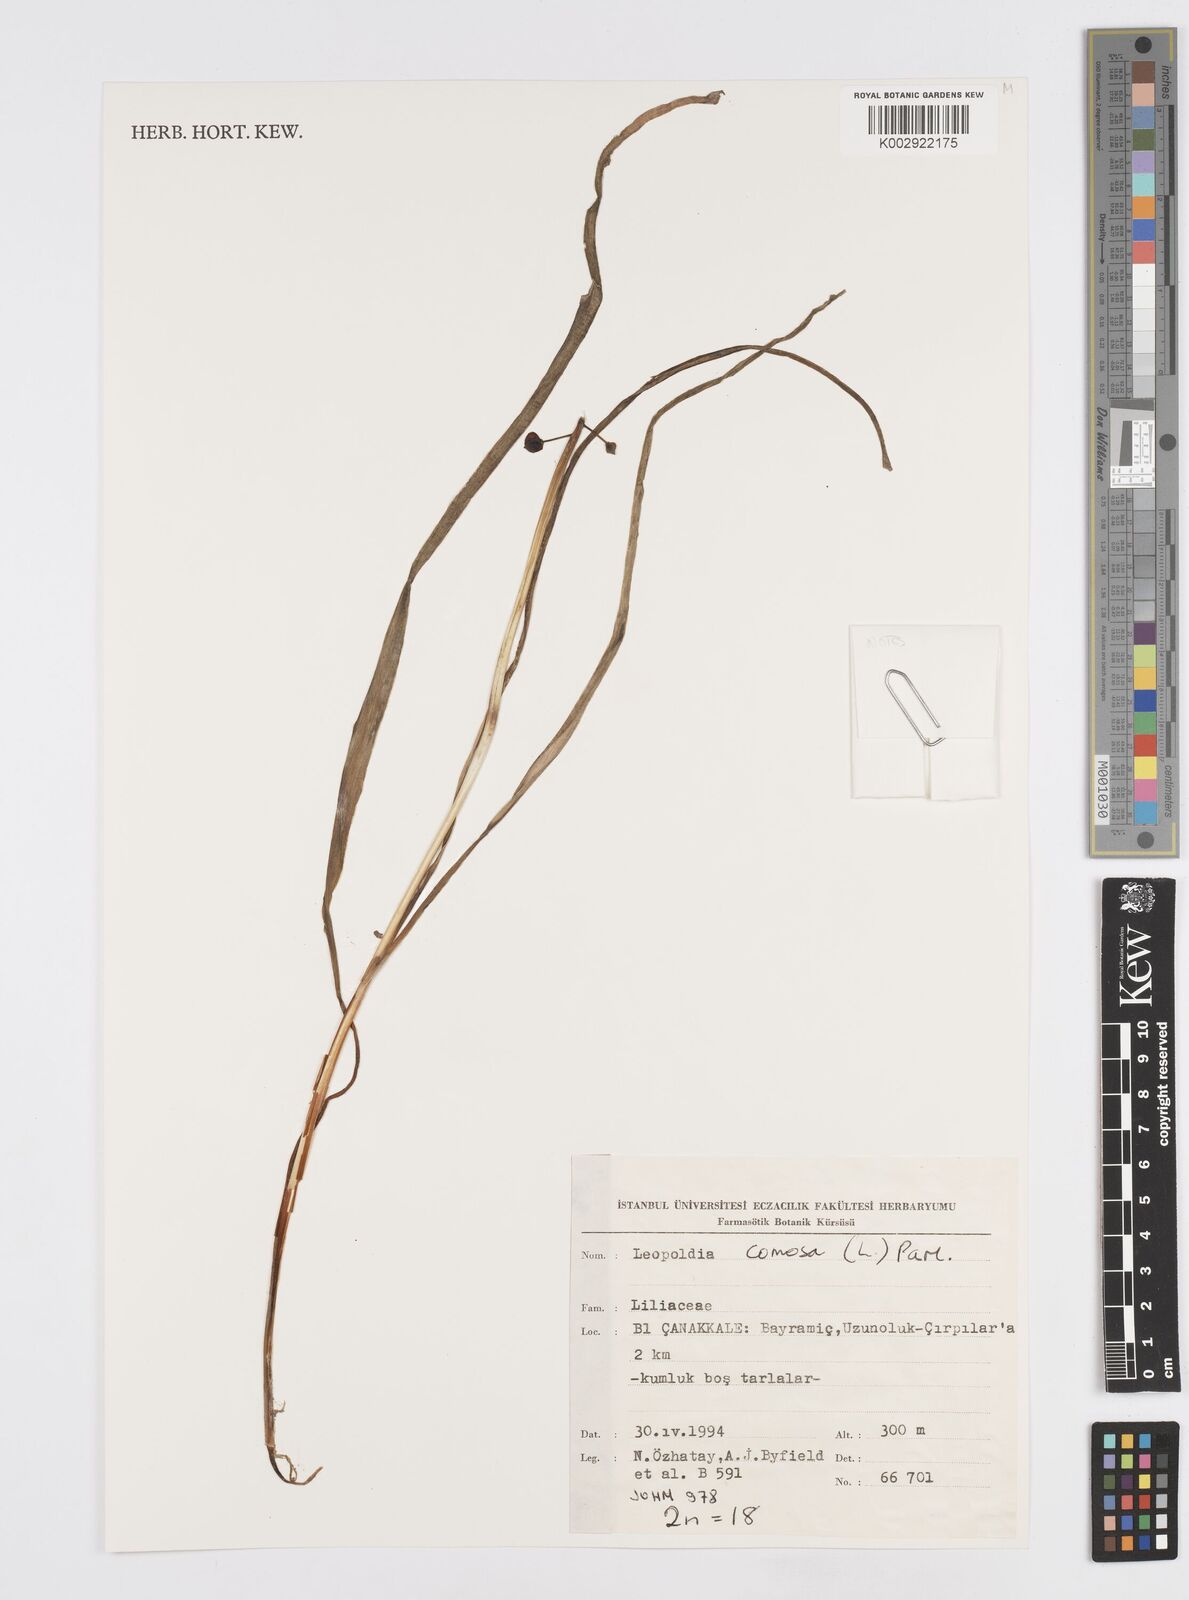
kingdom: Plantae
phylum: Tracheophyta
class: Liliopsida
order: Asparagales
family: Asparagaceae
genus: Muscari
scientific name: Muscari comosum
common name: Tassel hyacinth
